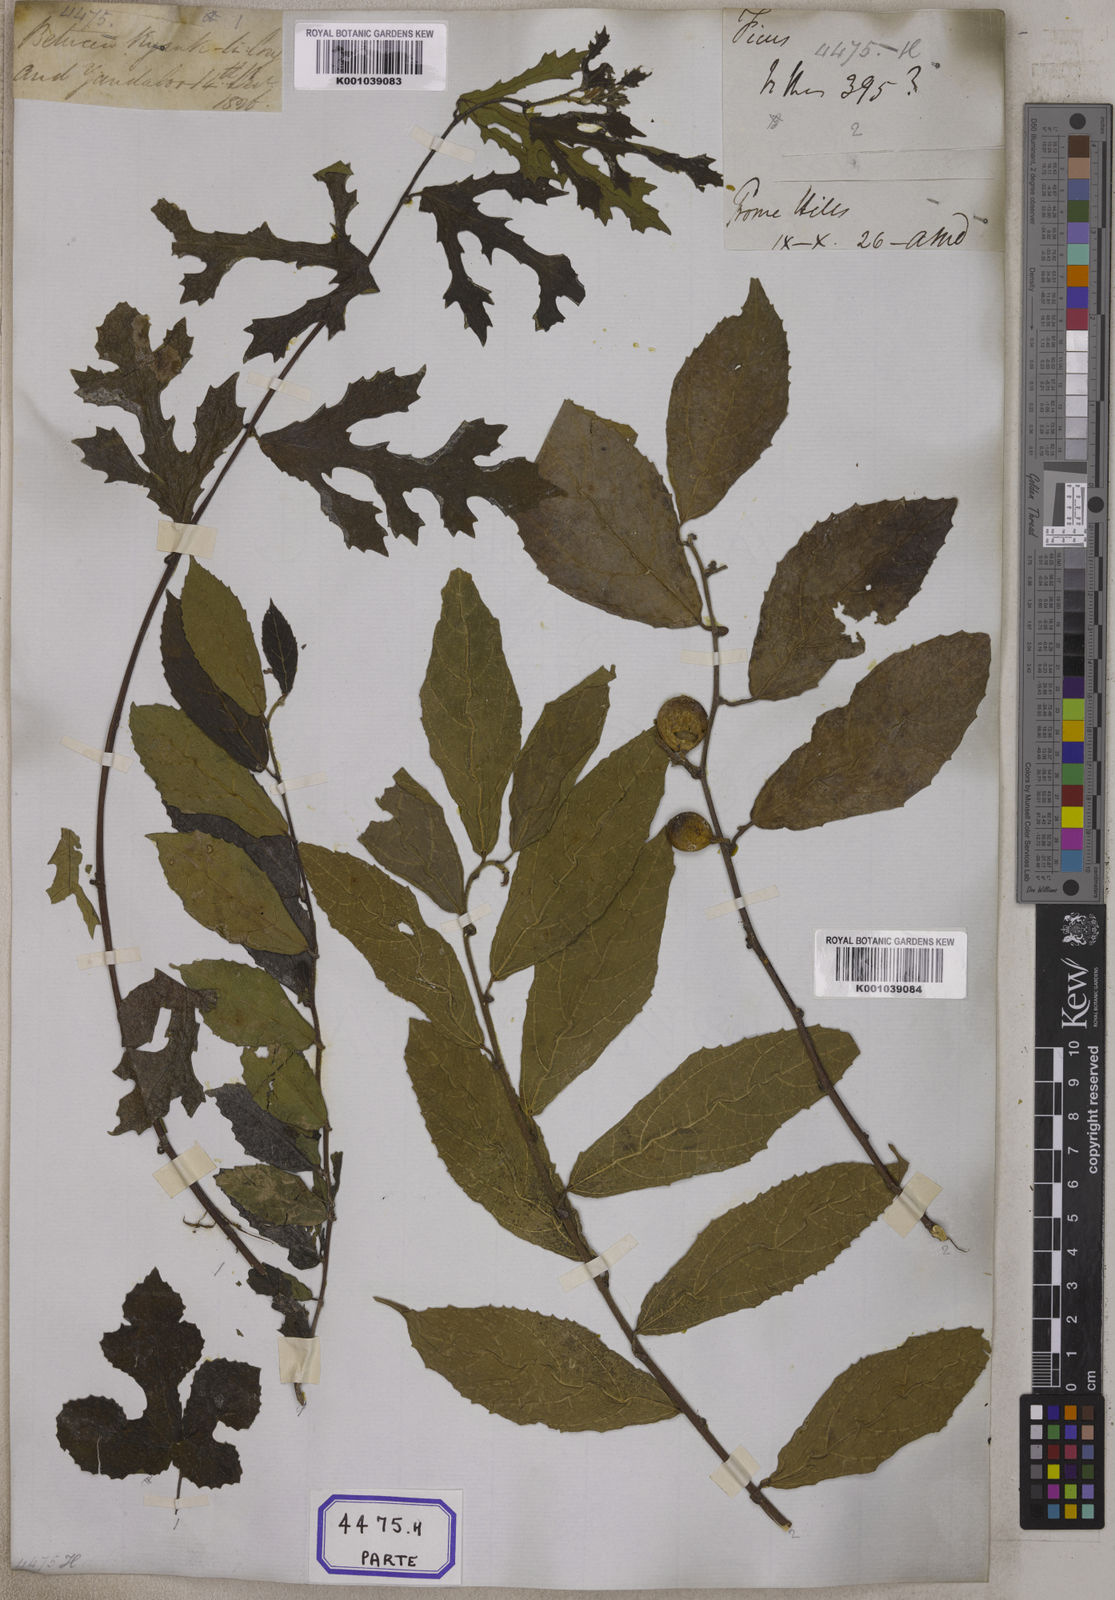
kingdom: Plantae
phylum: Tracheophyta
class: Magnoliopsida
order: Rosales
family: Moraceae
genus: Ficus
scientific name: Ficus
